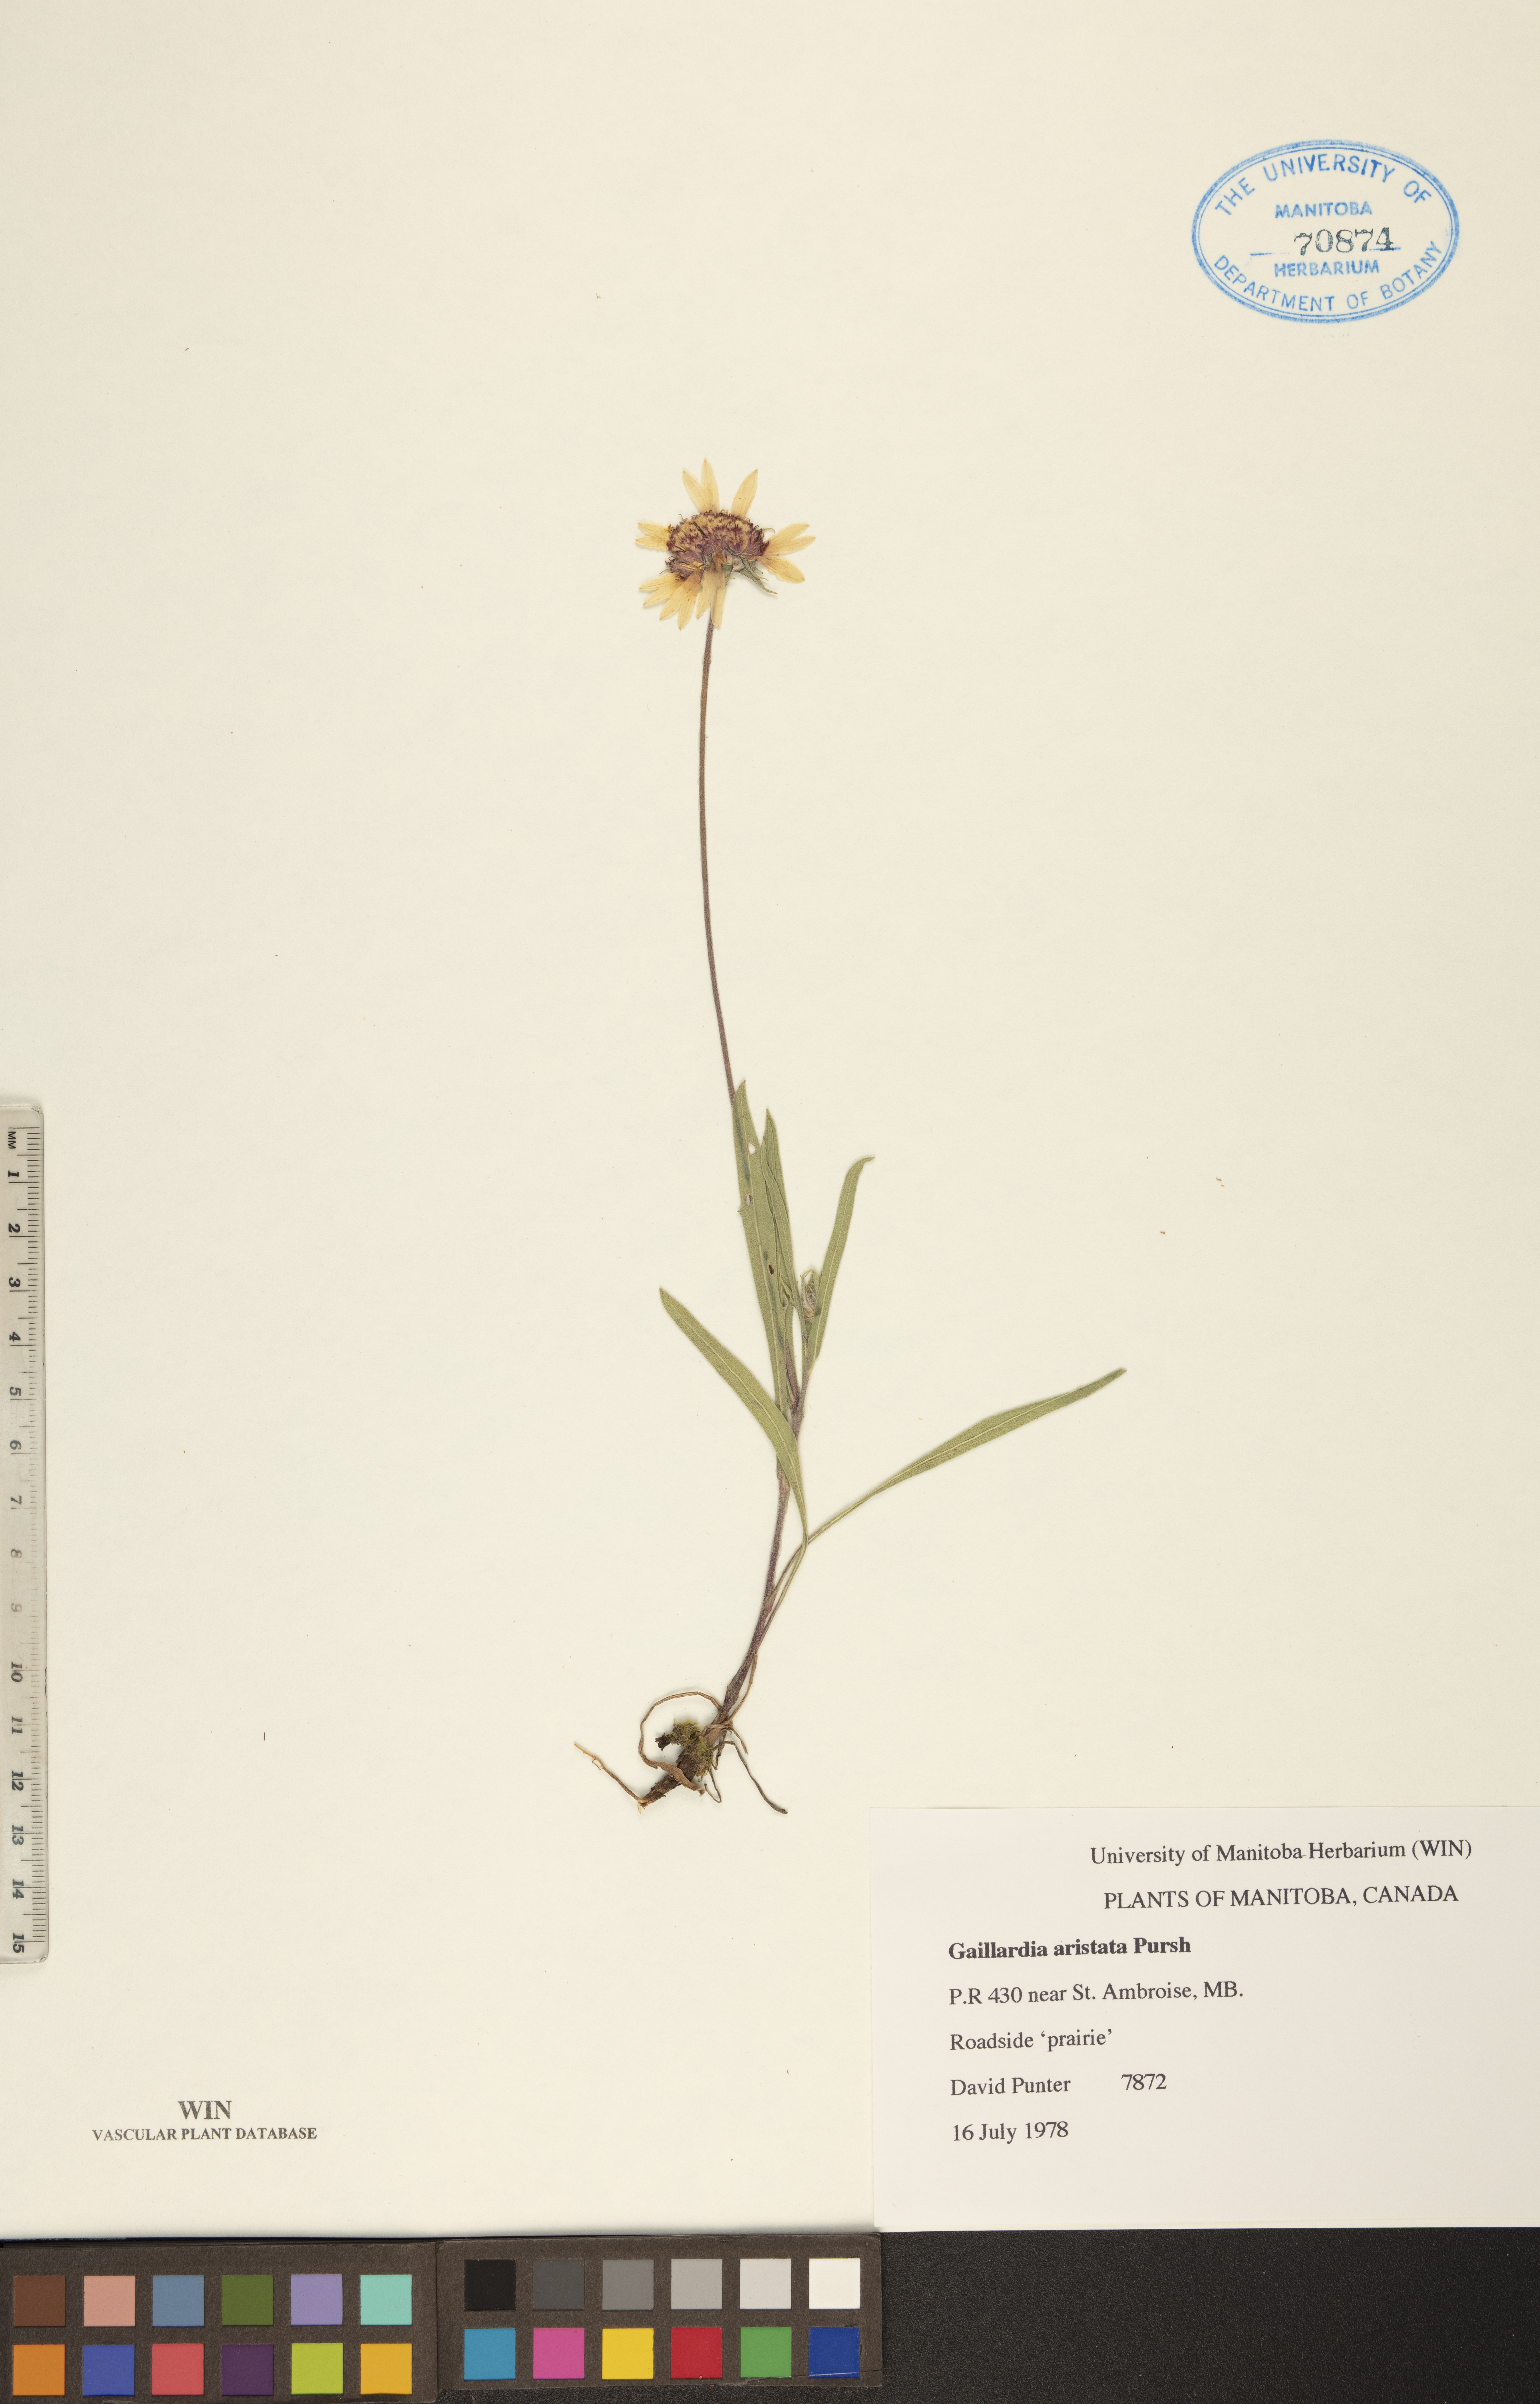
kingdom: Plantae
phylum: Tracheophyta
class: Magnoliopsida
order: Asterales
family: Asteraceae
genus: Gaillardia
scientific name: Gaillardia aristata
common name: Blanket-flower
